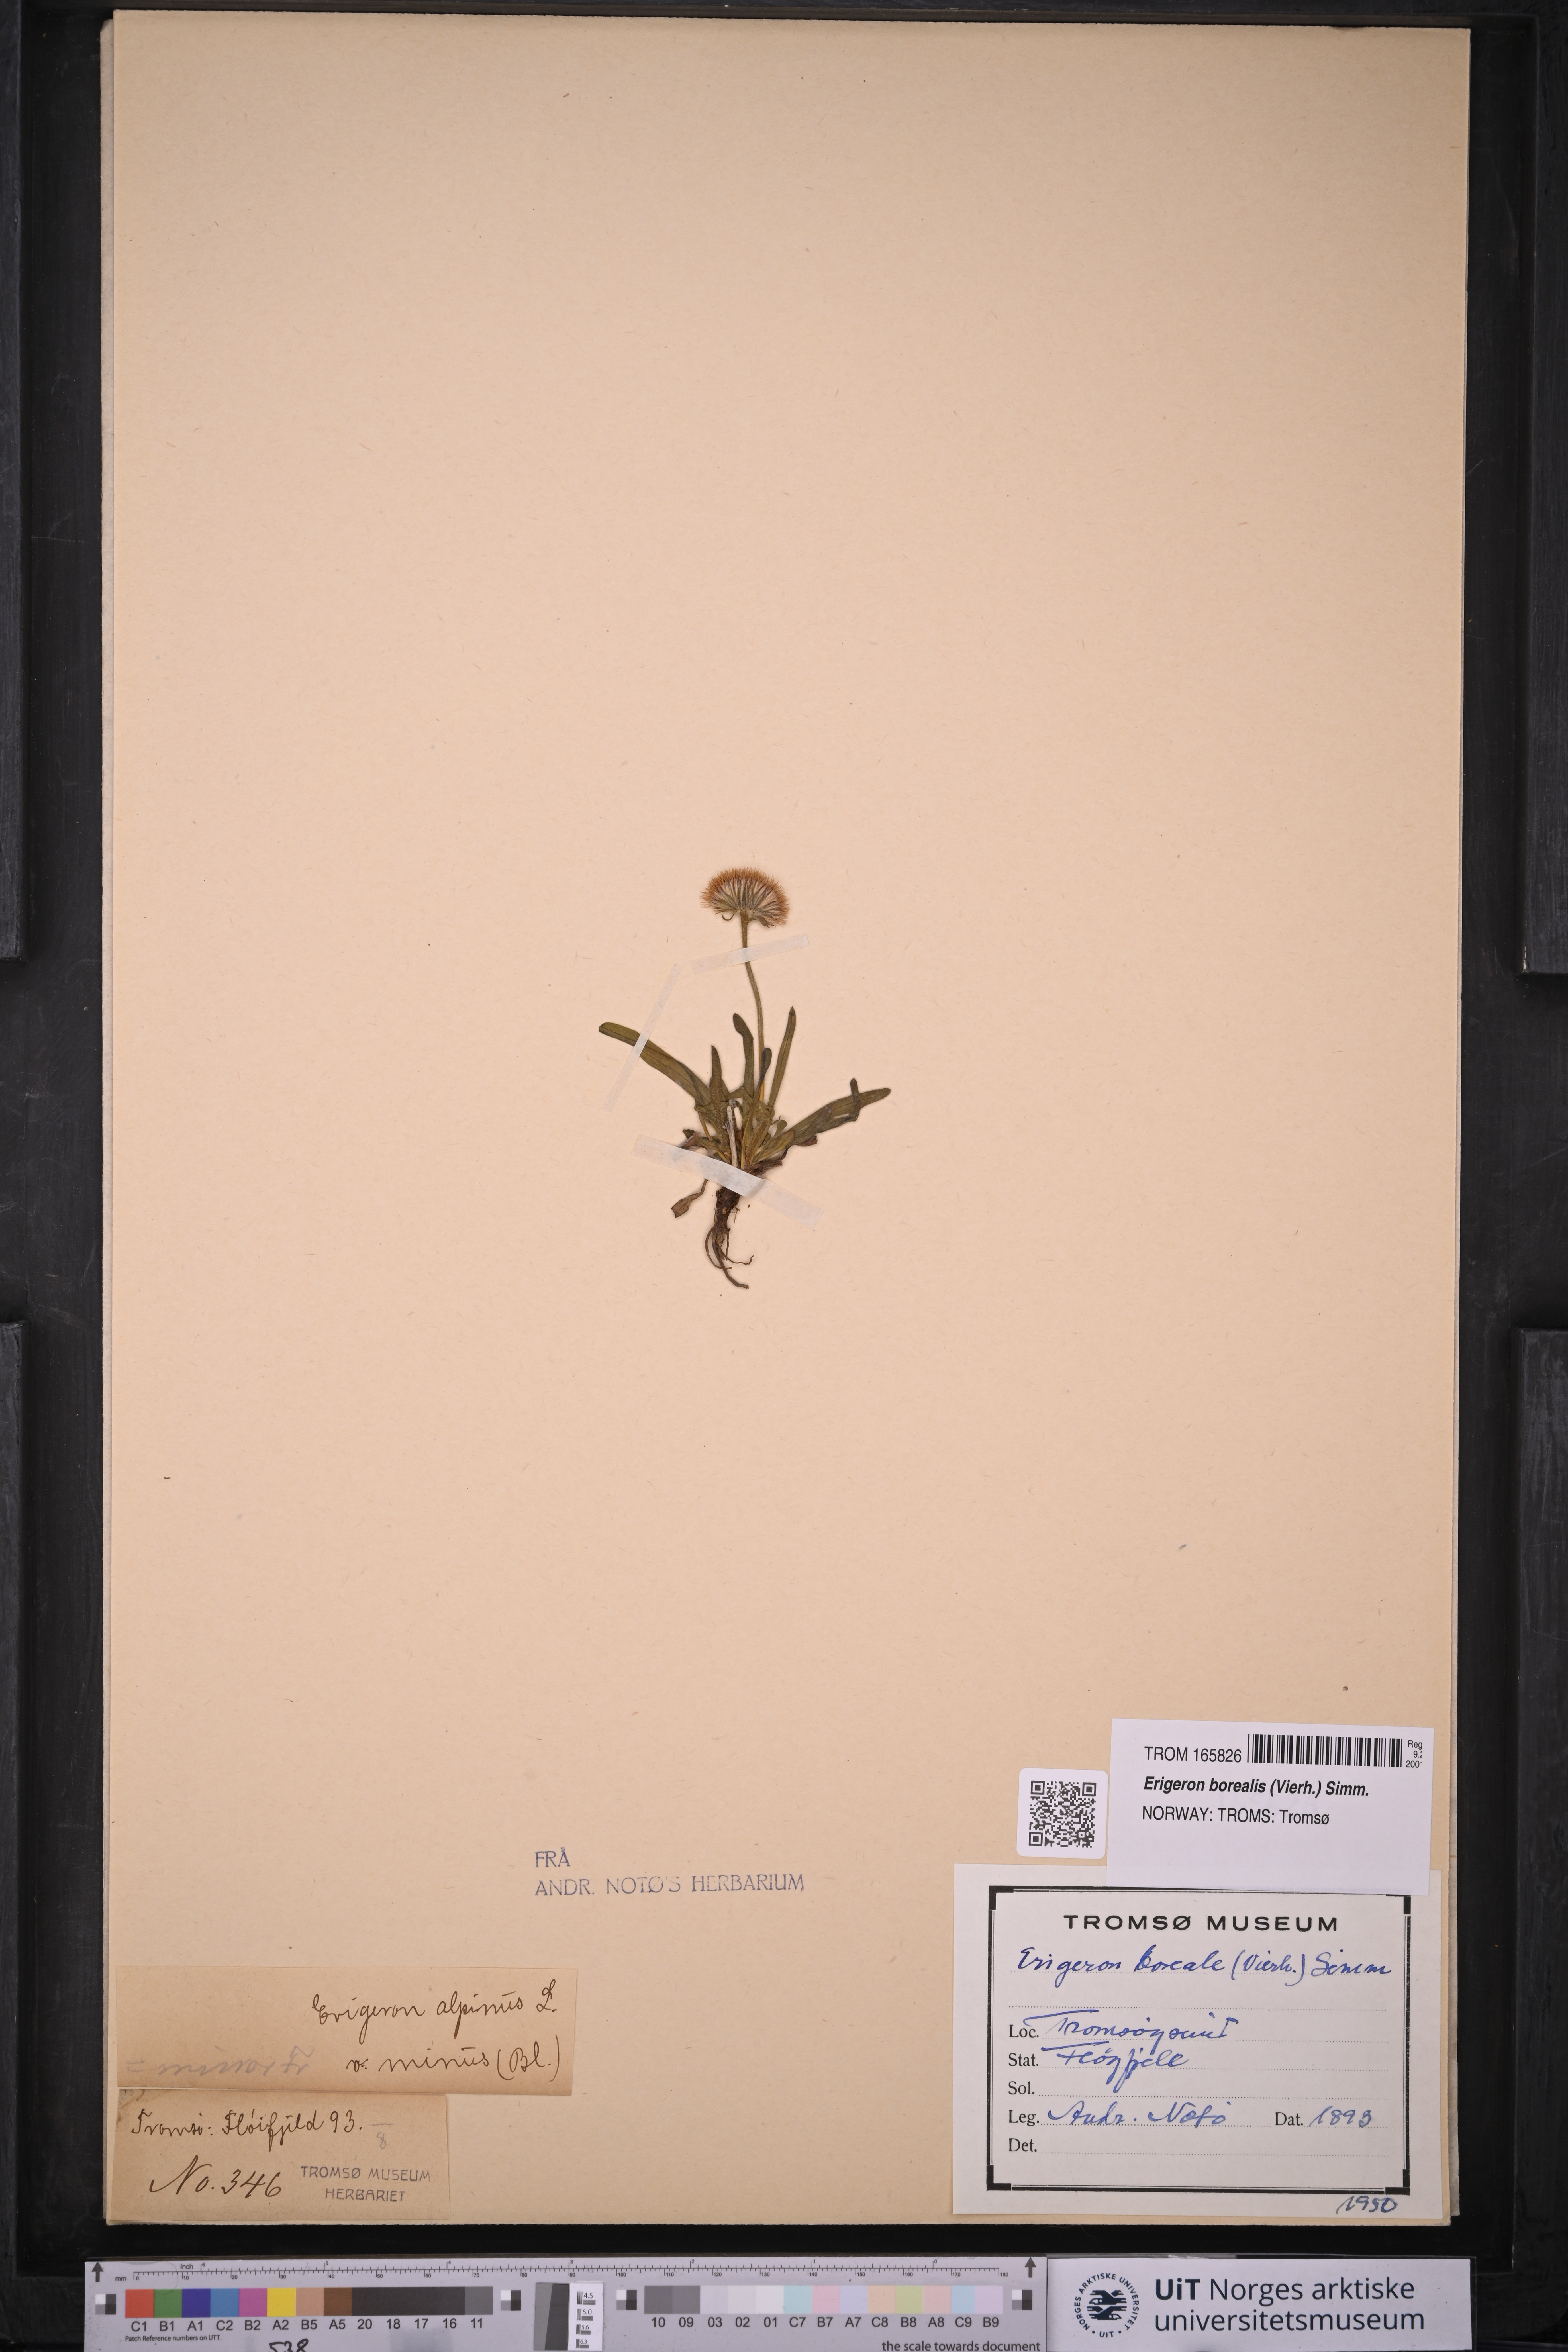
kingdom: Plantae
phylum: Tracheophyta
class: Magnoliopsida
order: Asterales
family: Asteraceae
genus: Erigeron
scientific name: Erigeron alpinus
